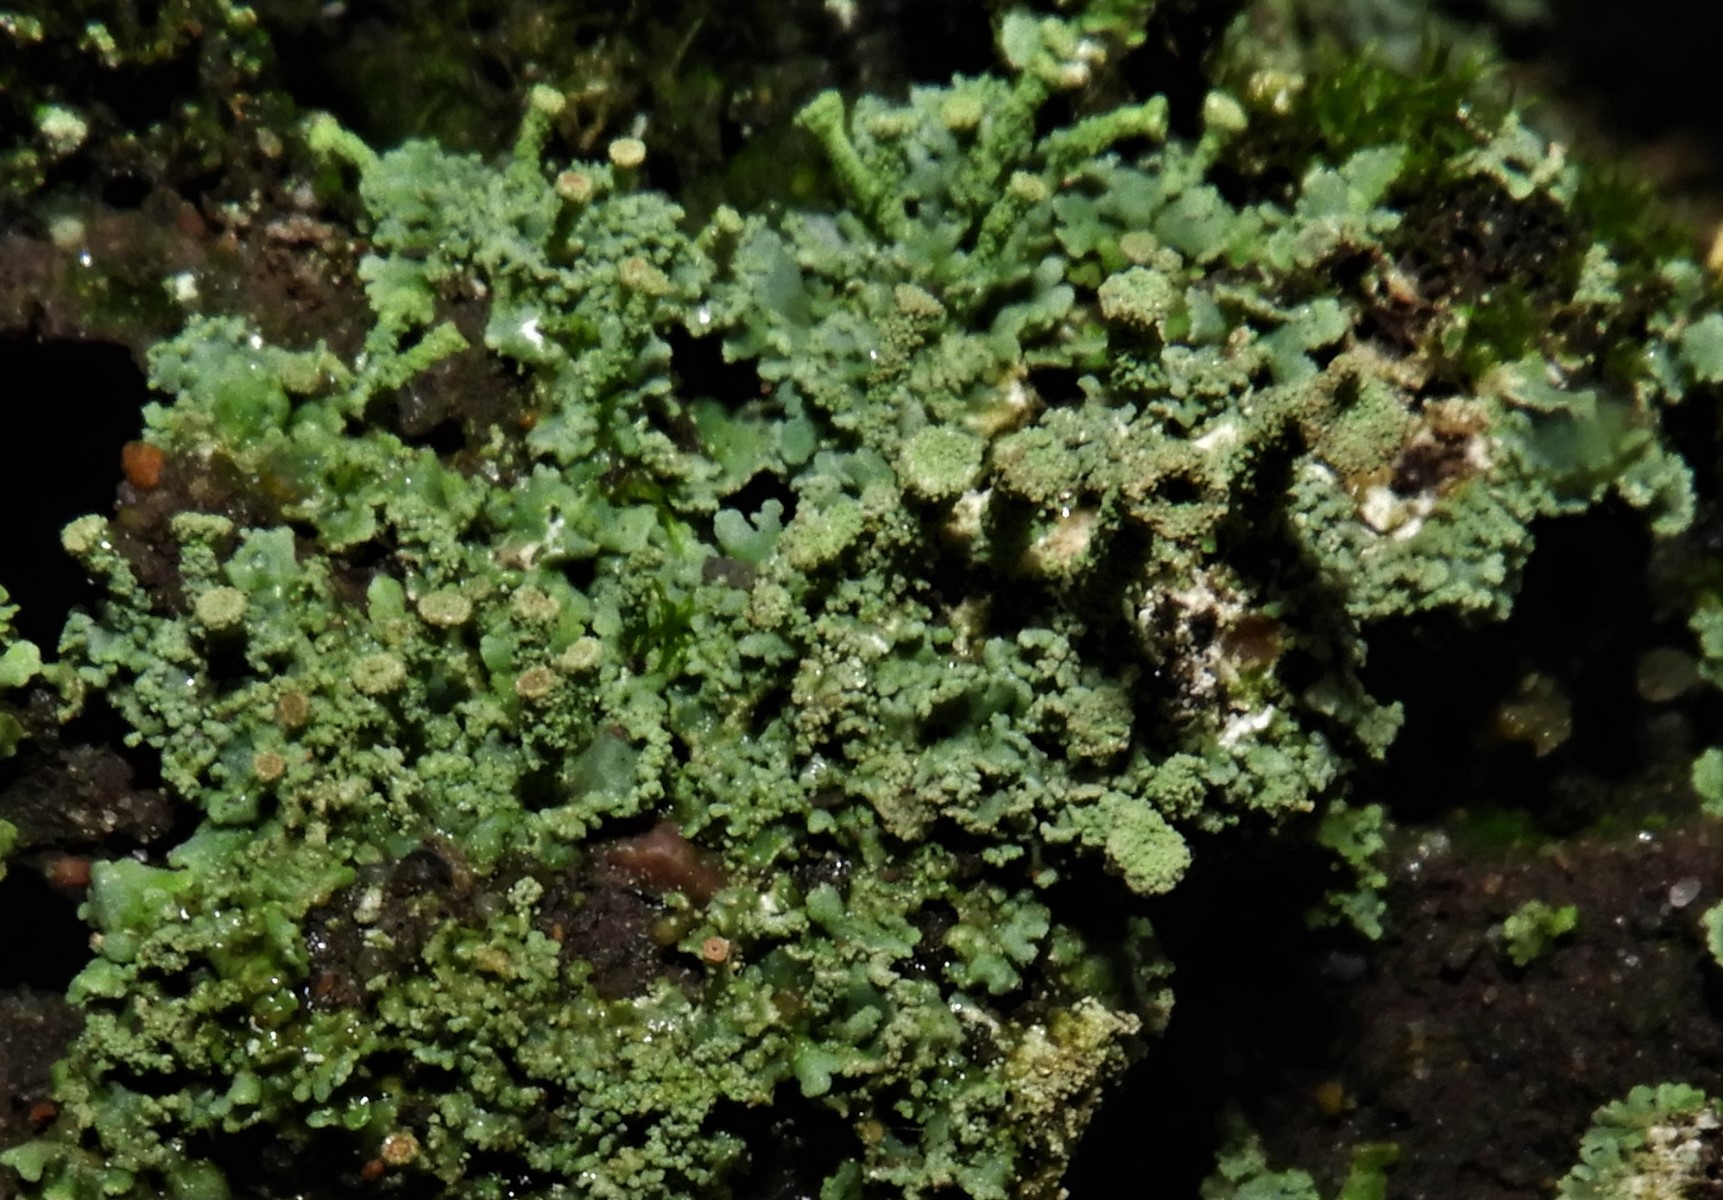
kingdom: Fungi
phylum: Ascomycota
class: Lecanoromycetes
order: Lecanorales
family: Cladoniaceae
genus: Cladonia
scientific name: Cladonia
